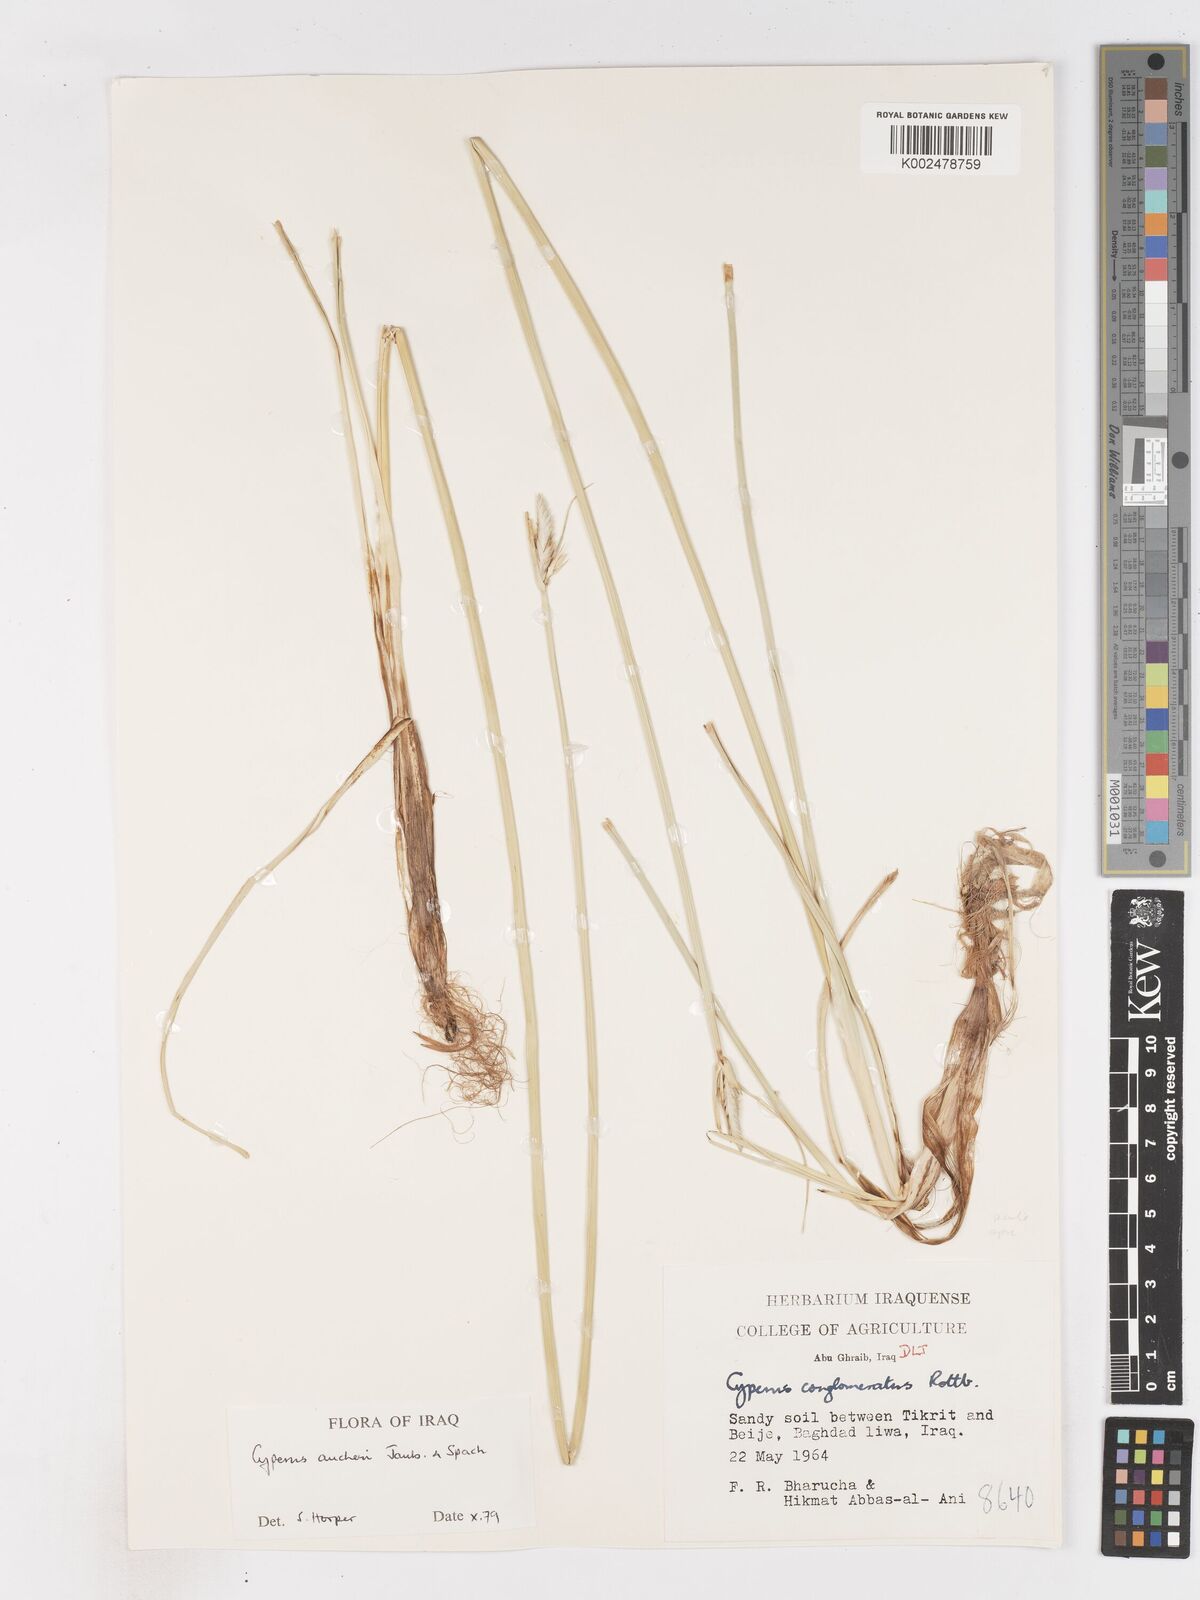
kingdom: Plantae
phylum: Tracheophyta
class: Liliopsida
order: Poales
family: Cyperaceae
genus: Cyperus
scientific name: Cyperus aucheri
